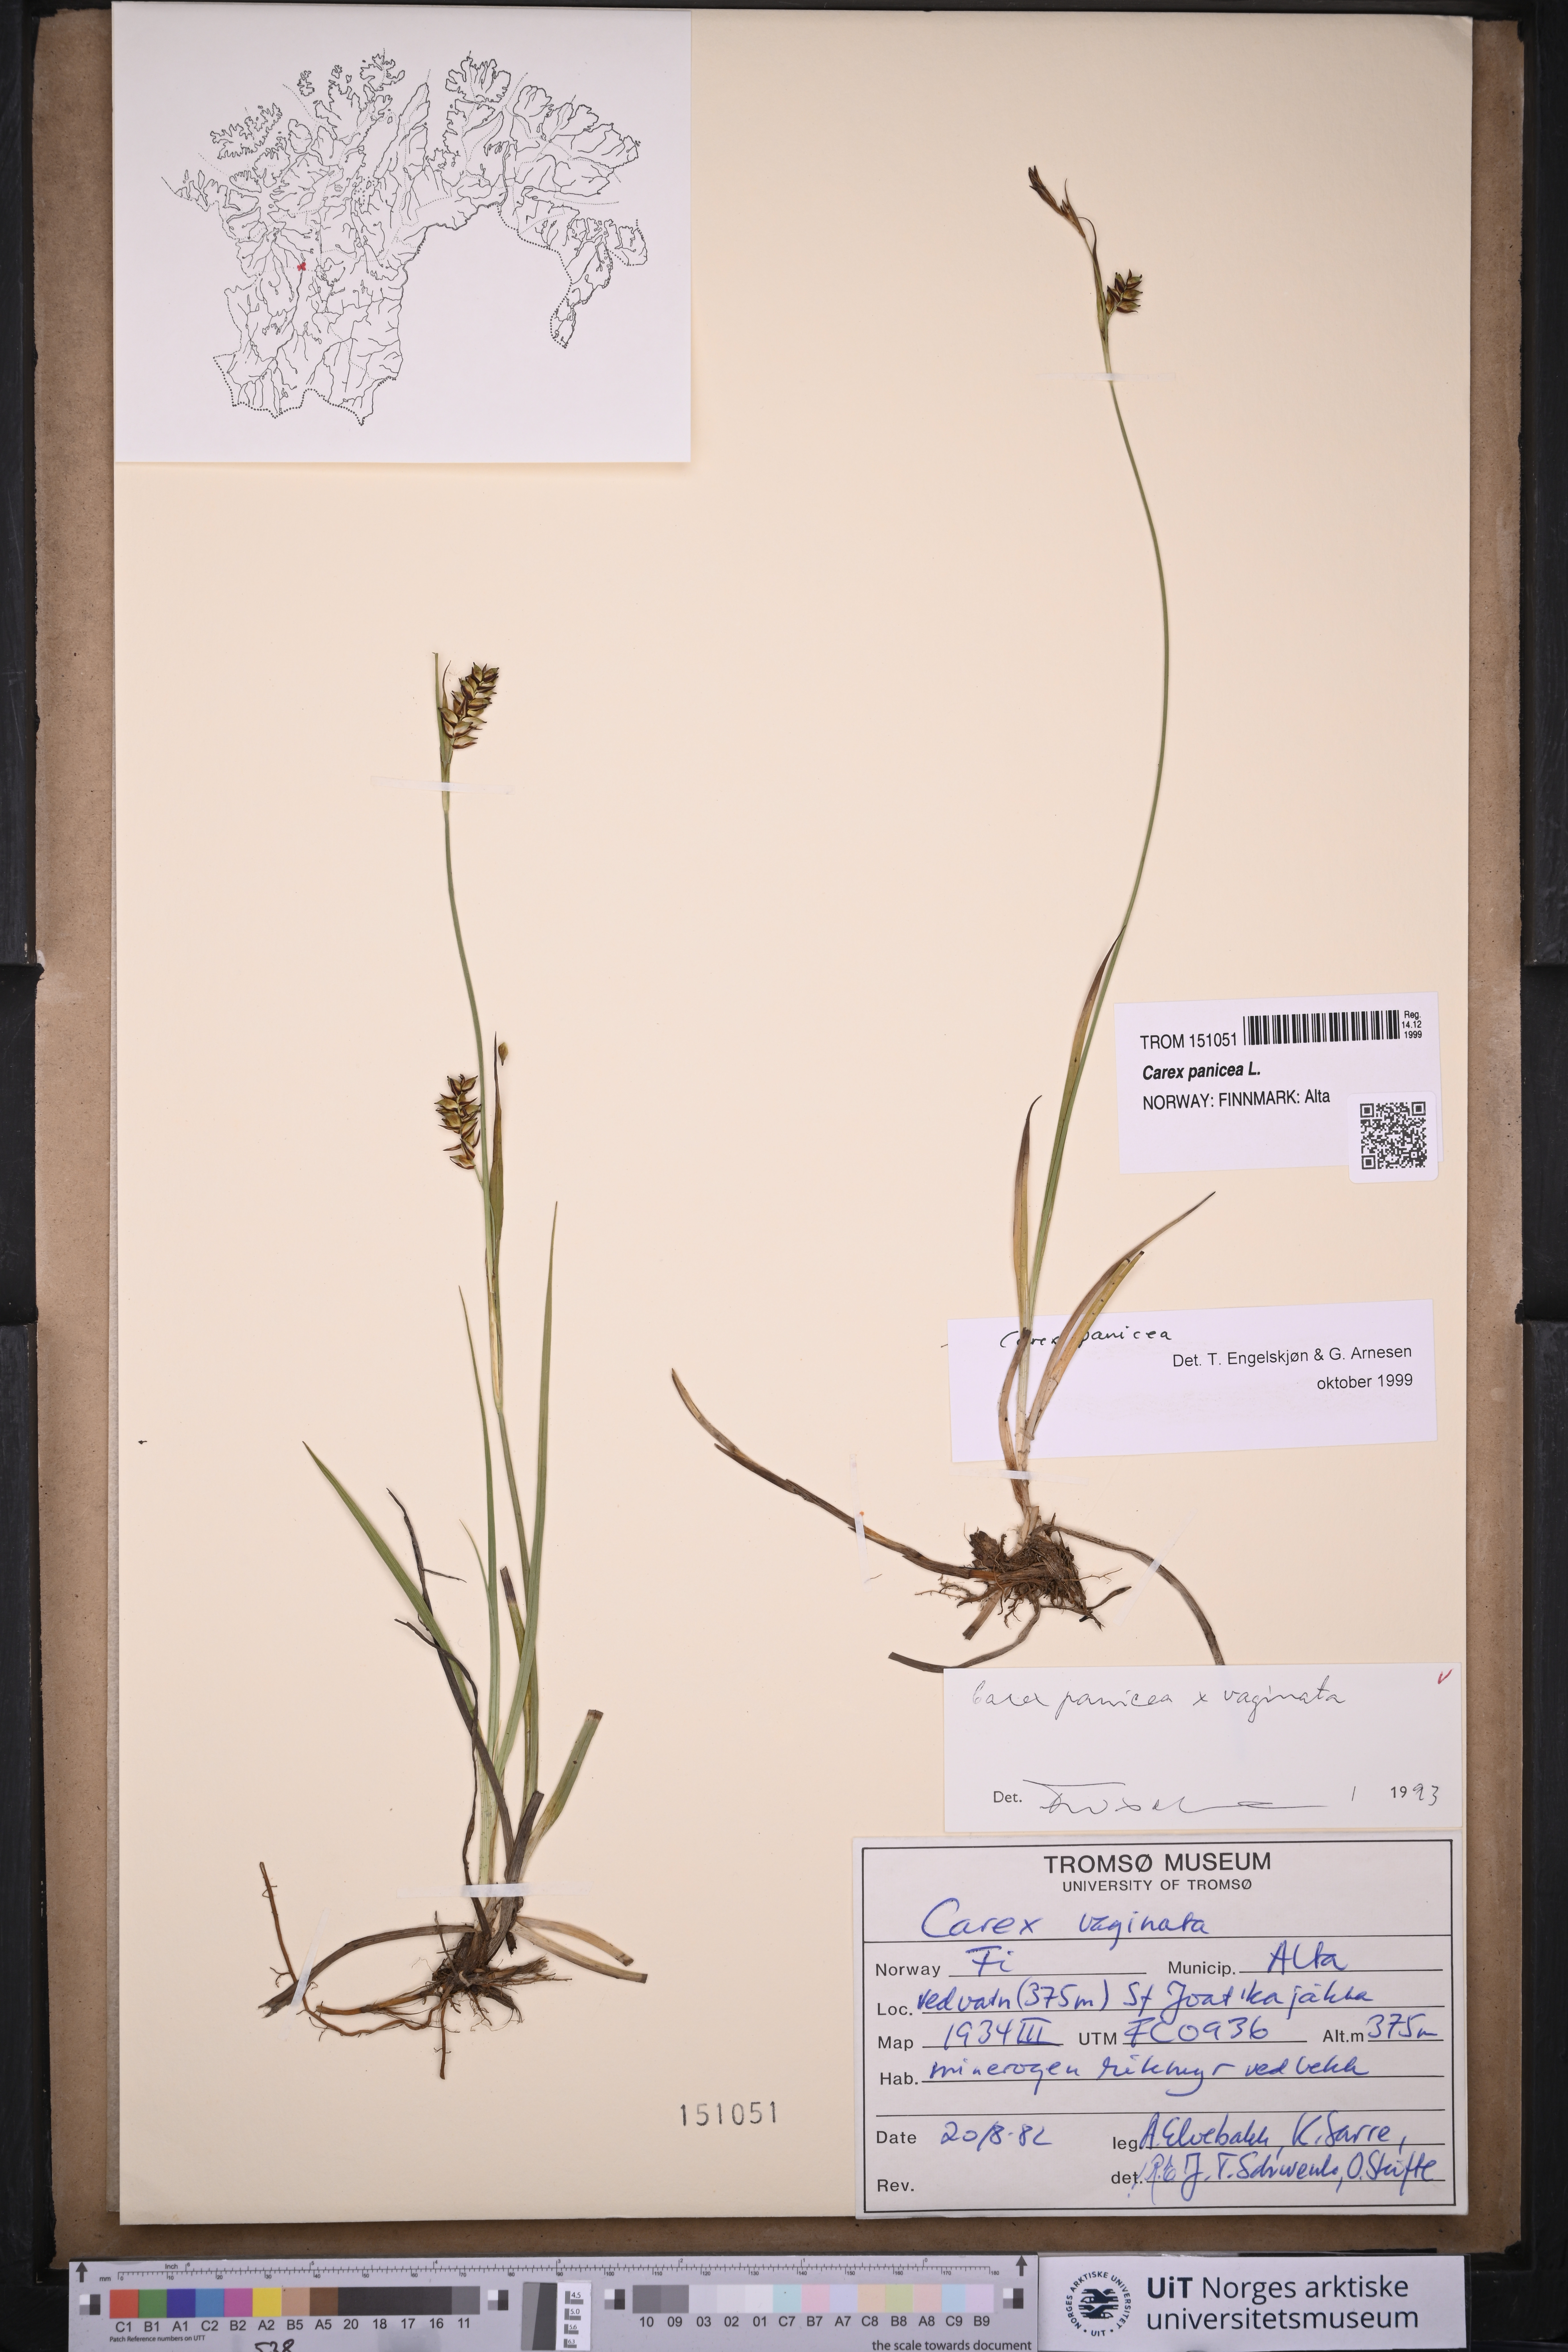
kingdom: Plantae
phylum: Tracheophyta
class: Liliopsida
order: Poales
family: Cyperaceae
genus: Carex
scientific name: Carex panicea
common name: Carnation sedge
